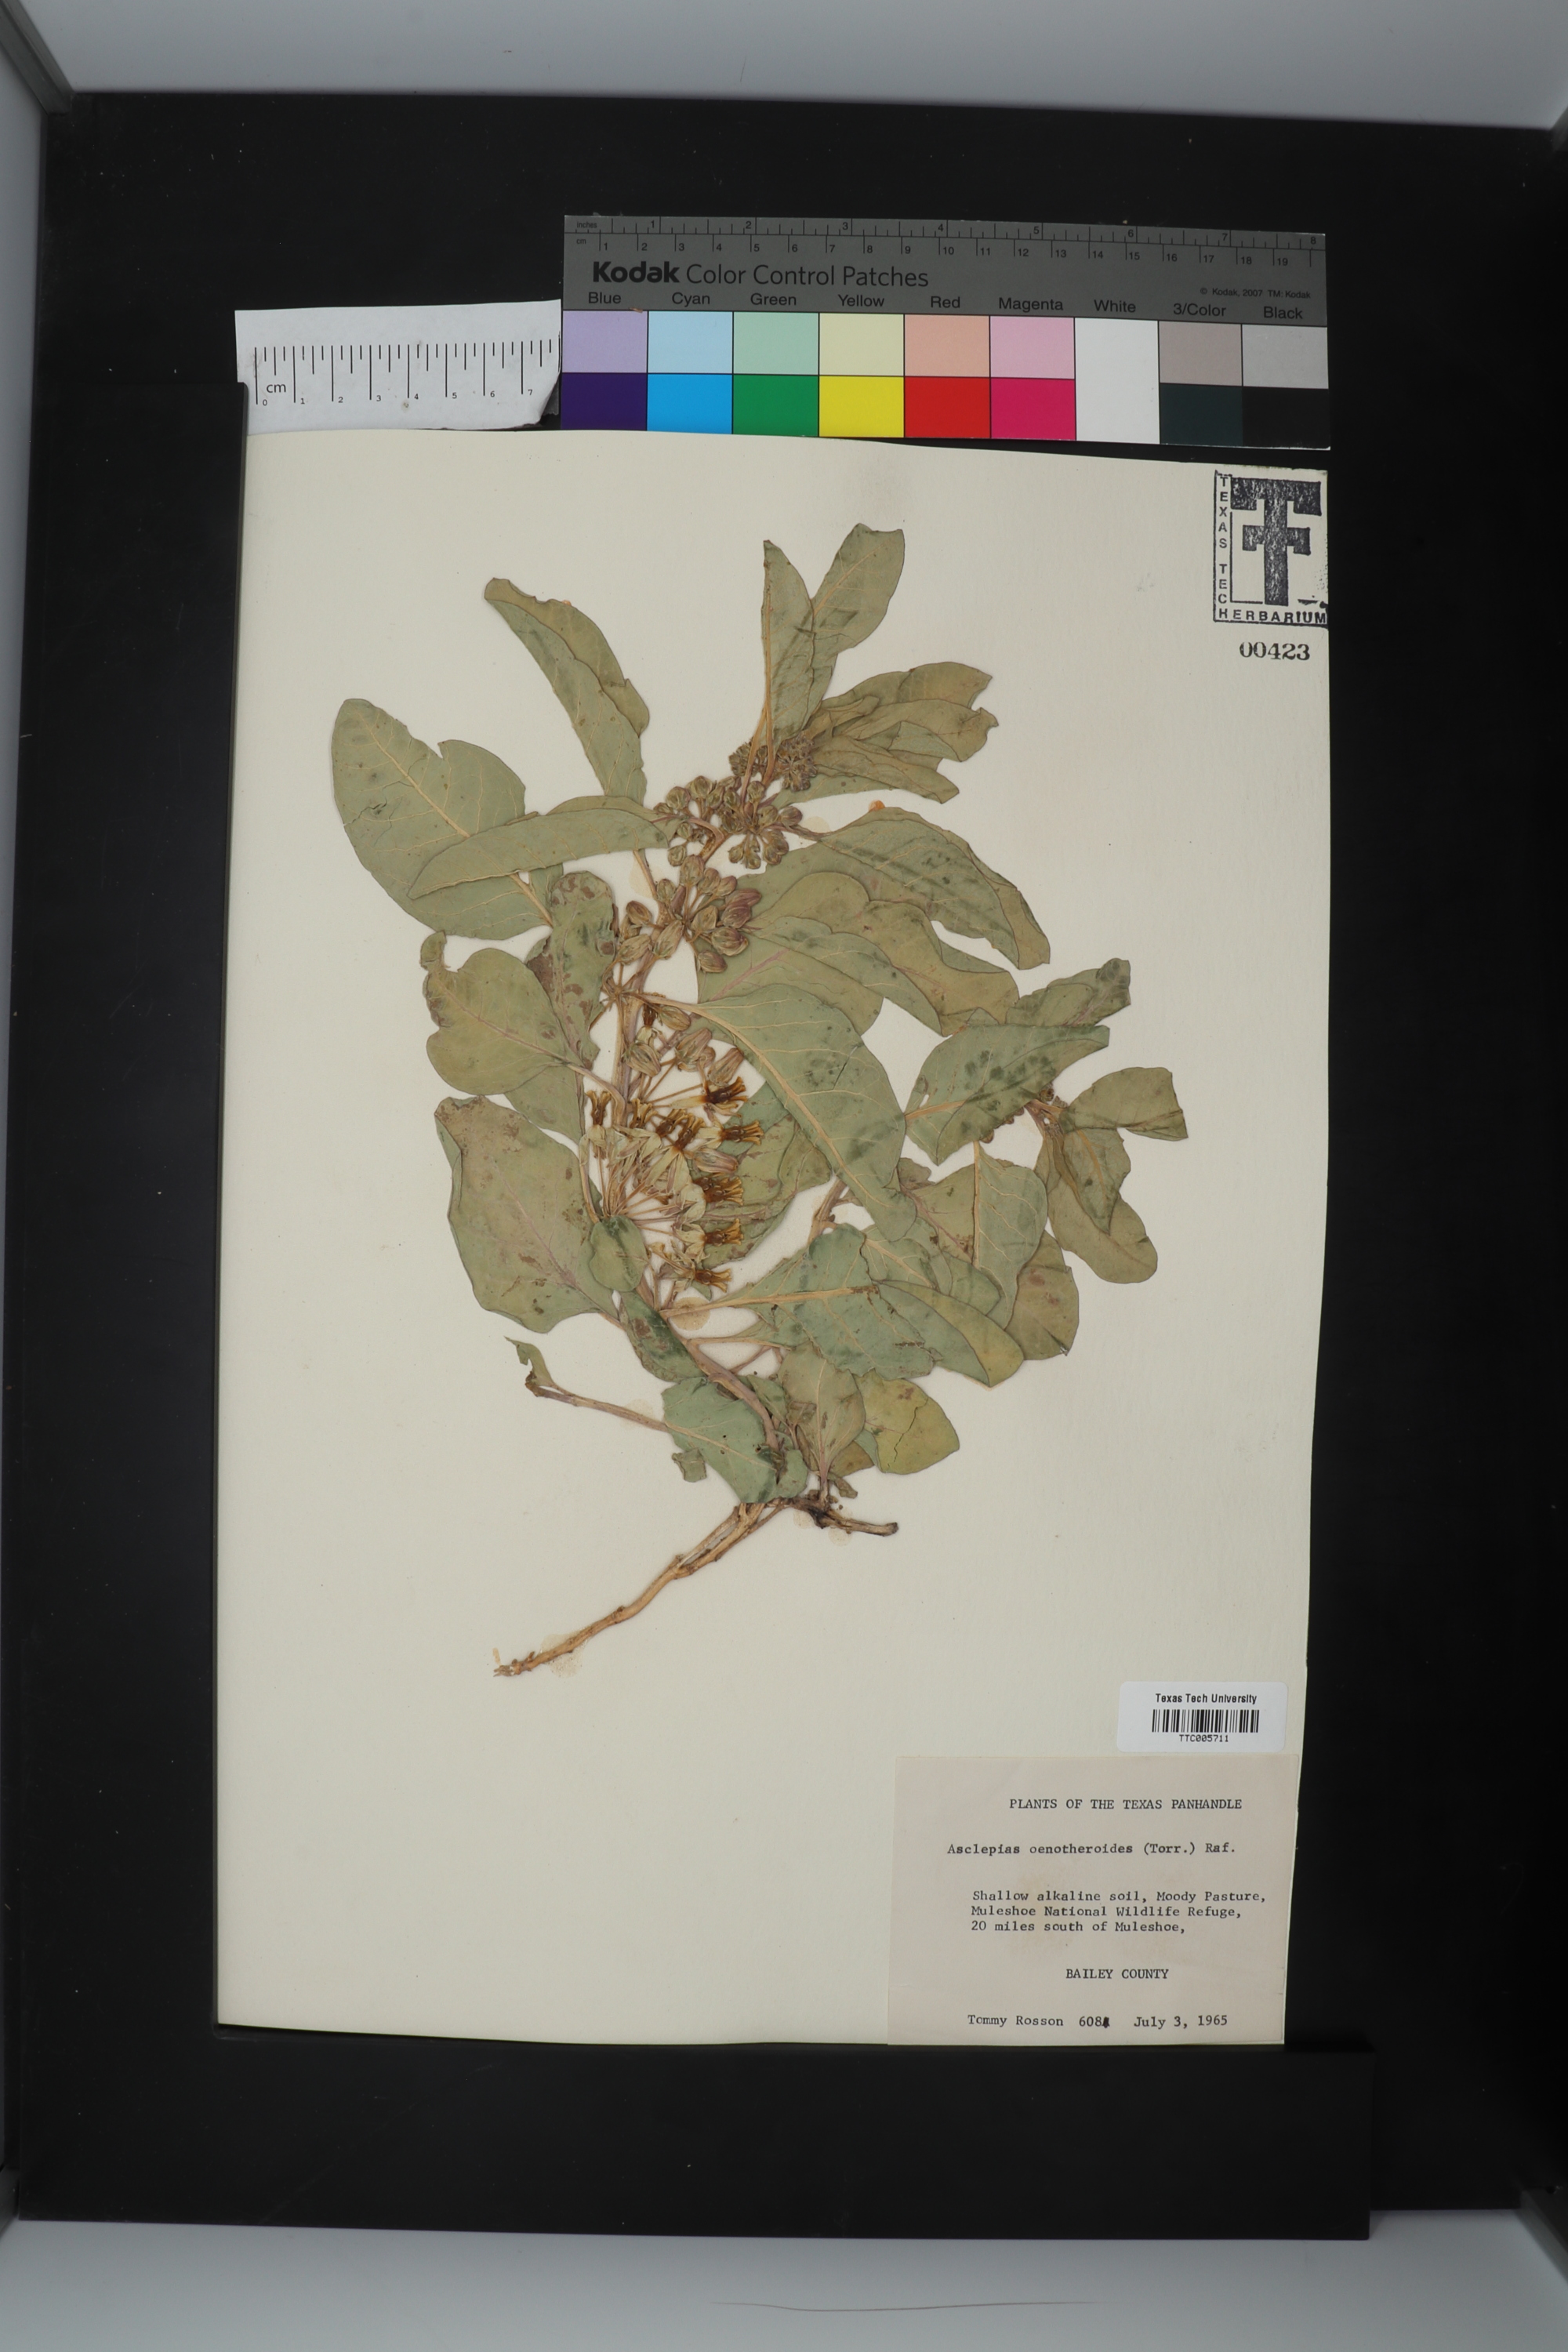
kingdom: Plantae
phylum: Tracheophyta
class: Magnoliopsida
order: Gentianales
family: Apocynaceae
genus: Asclepias
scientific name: Asclepias oenotheroides
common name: Zizotes milkweed
